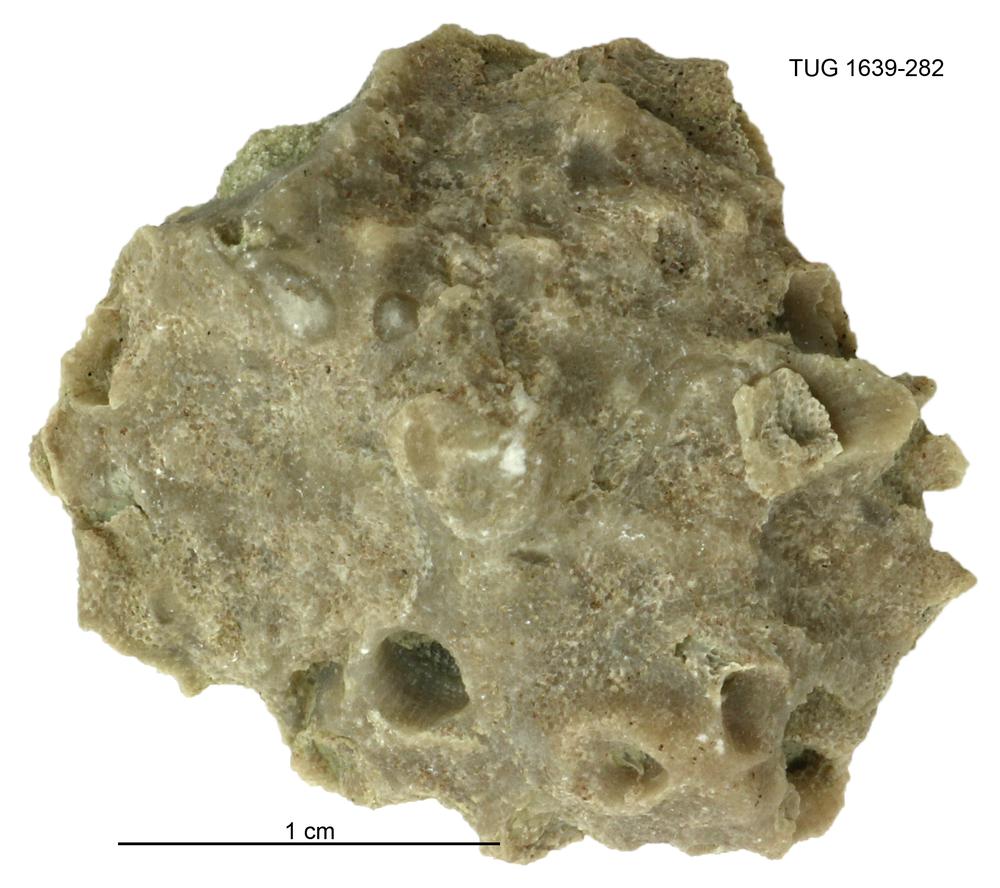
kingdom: Animalia
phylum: Bryozoa
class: Stenolaemata
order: Cystoporida
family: Fistuliporidae
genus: Fistulipora
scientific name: Fistulipora przhidolensis
